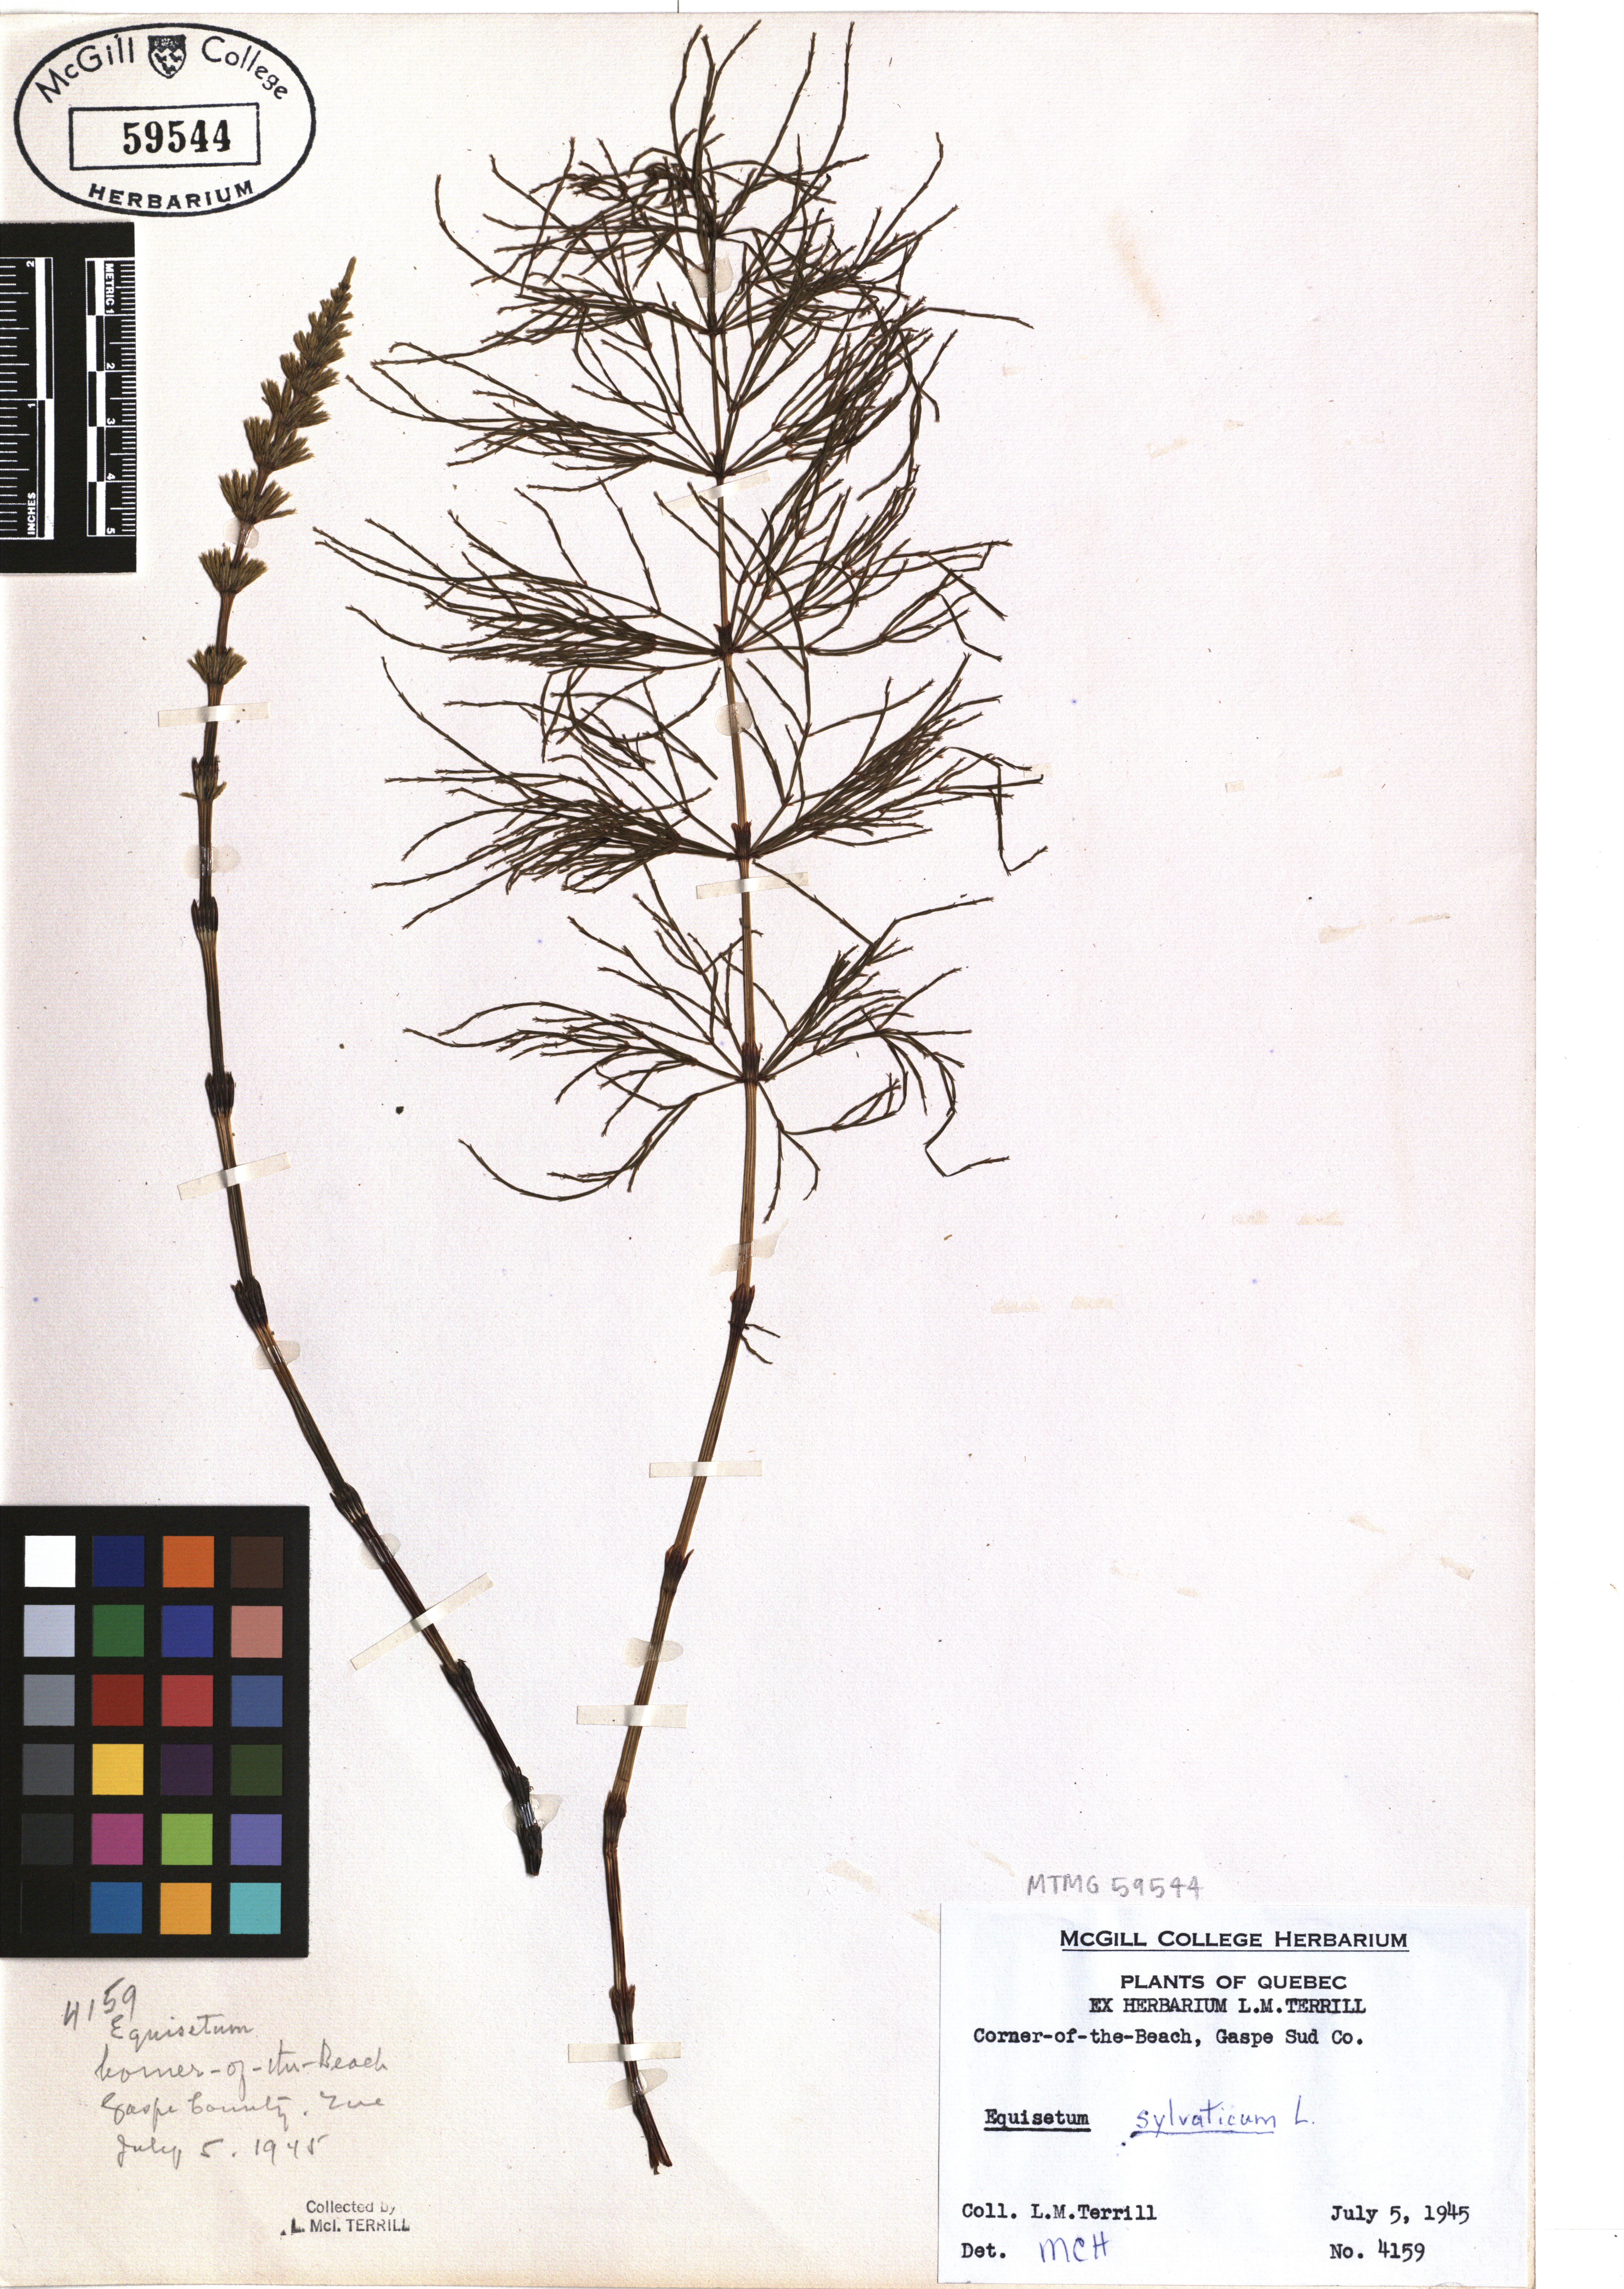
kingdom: Plantae
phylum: Tracheophyta
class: Polypodiopsida
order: Equisetales
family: Equisetaceae
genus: Equisetum
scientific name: Equisetum sylvaticum
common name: Wood horsetail
